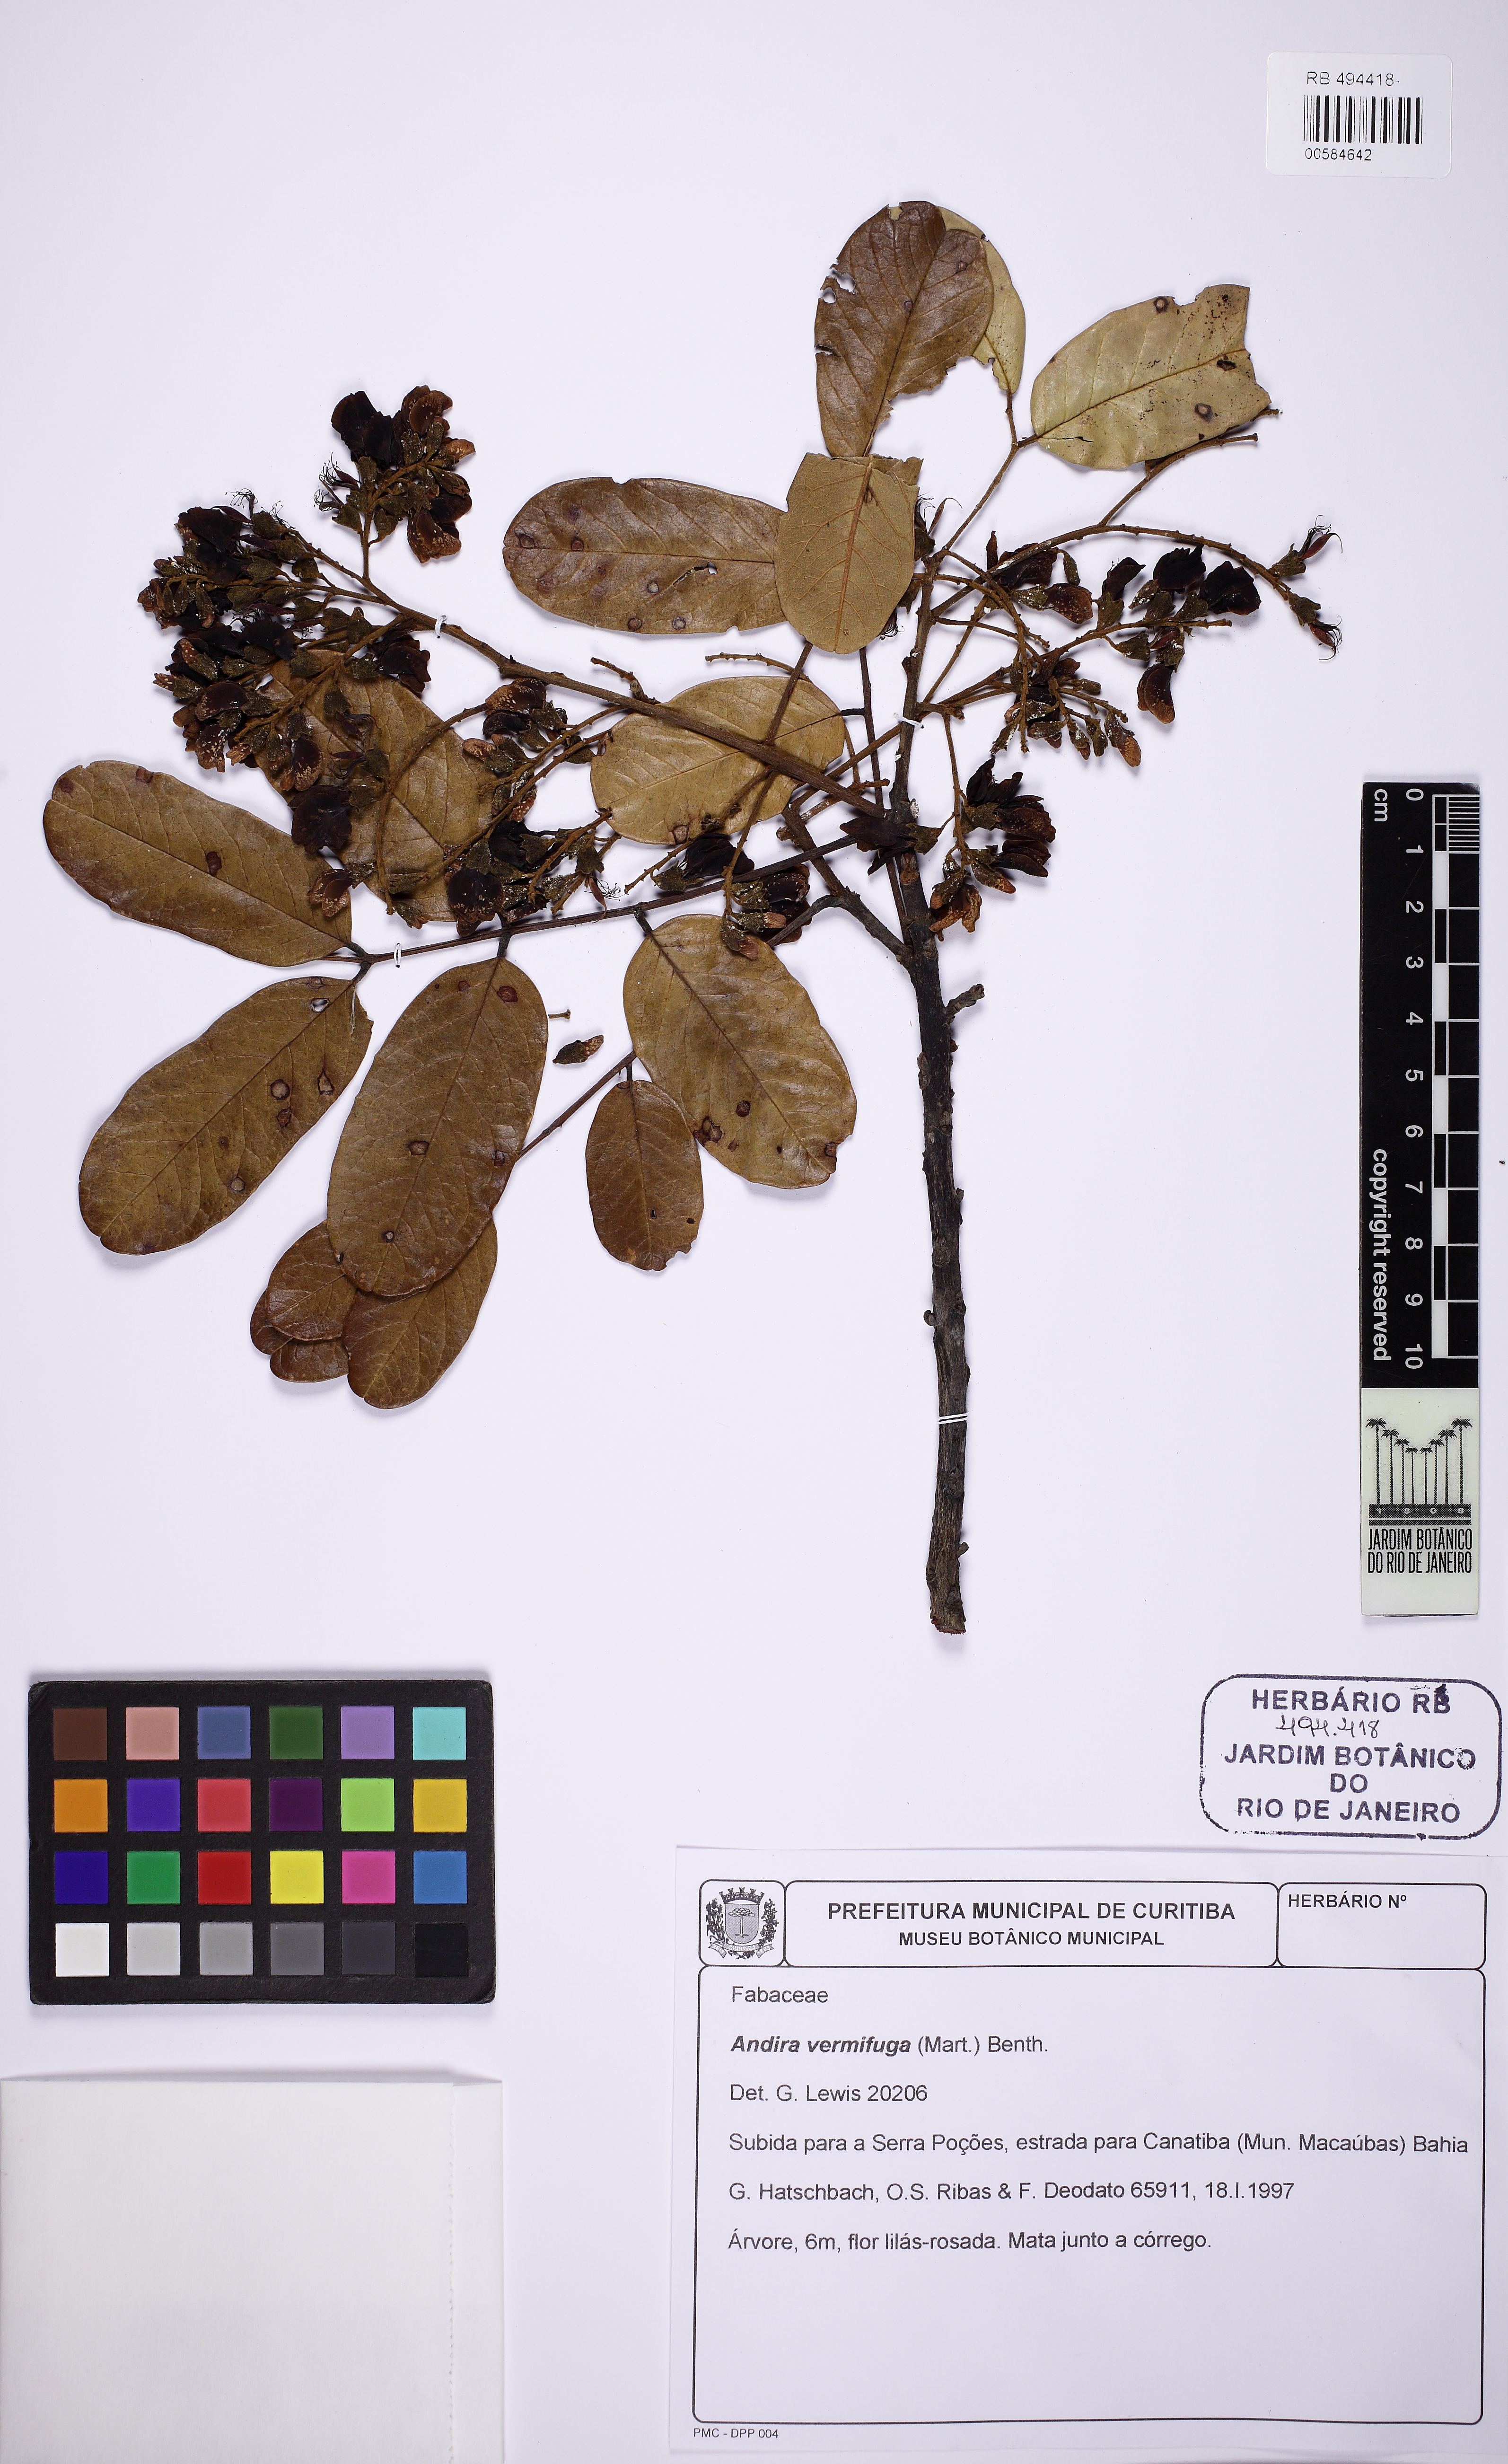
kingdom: Plantae
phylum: Tracheophyta
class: Magnoliopsida
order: Fabales
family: Fabaceae
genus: Andira
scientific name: Andira vermifuga
